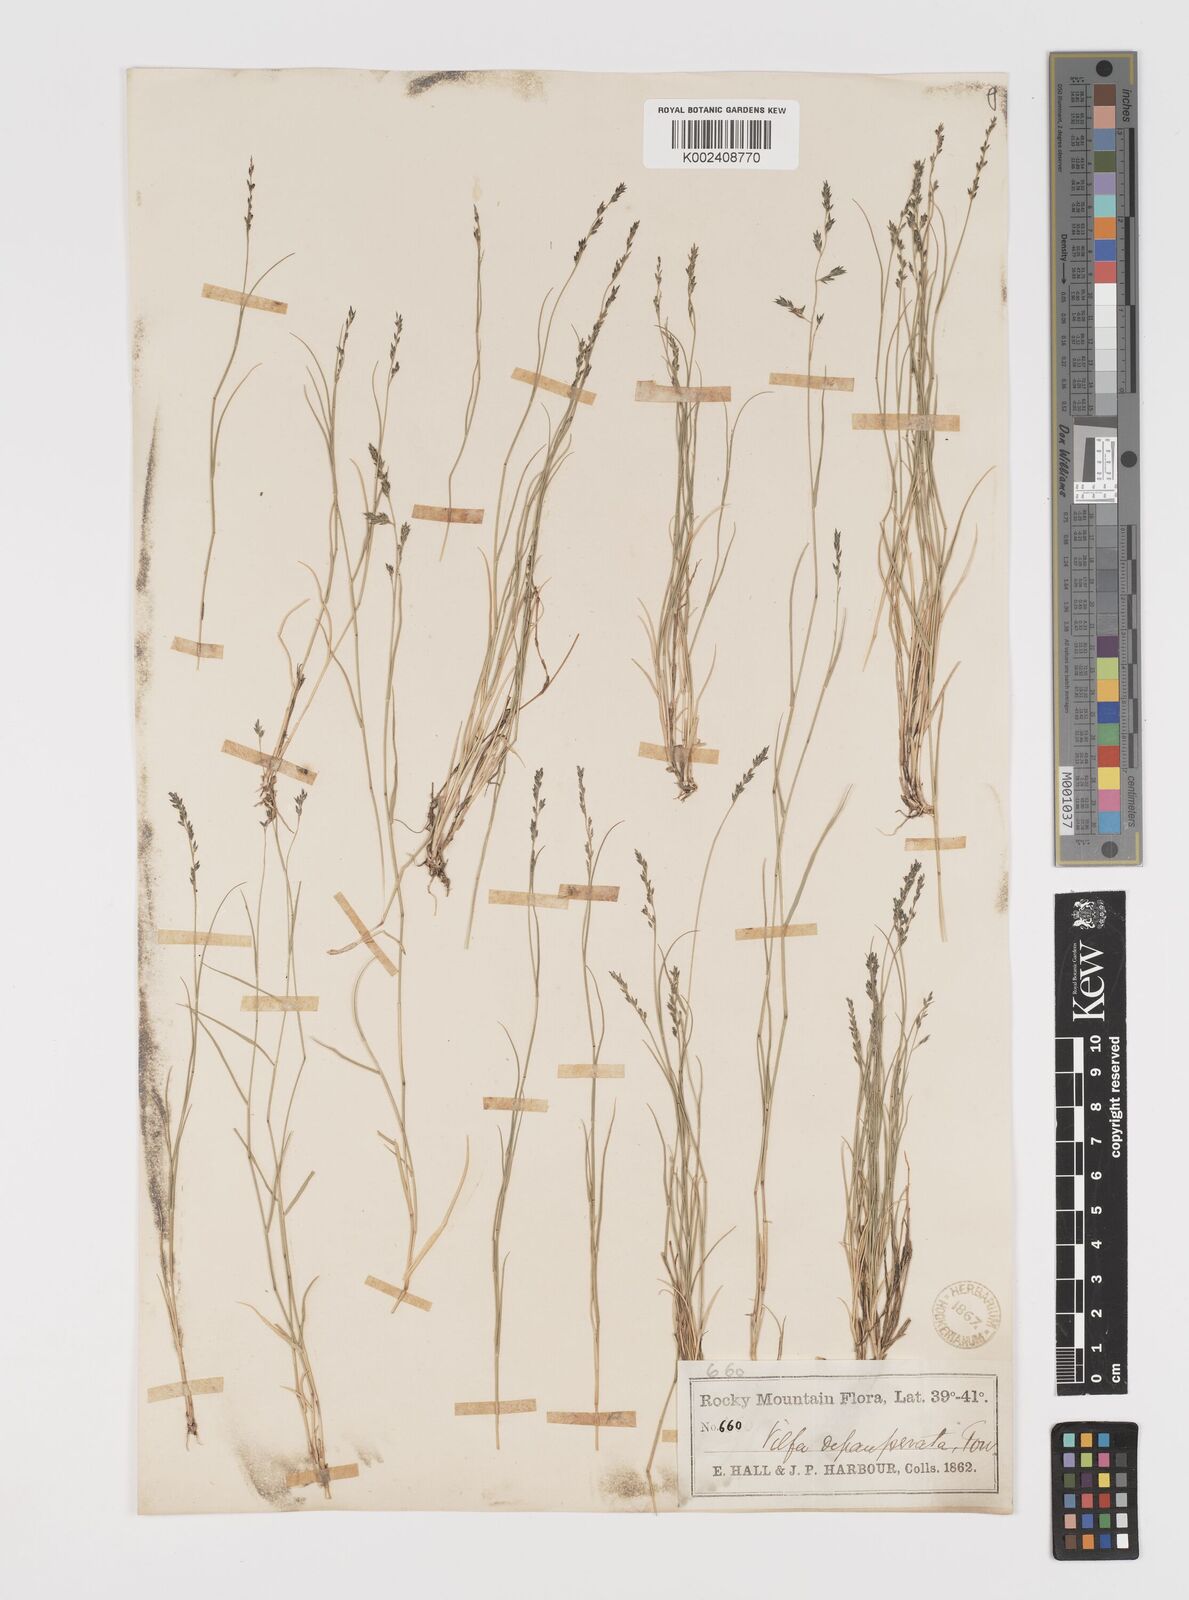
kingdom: Plantae
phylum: Tracheophyta
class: Liliopsida
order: Poales
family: Poaceae
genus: Muhlenbergia
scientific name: Muhlenbergia richardsonis
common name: Mat muhly
